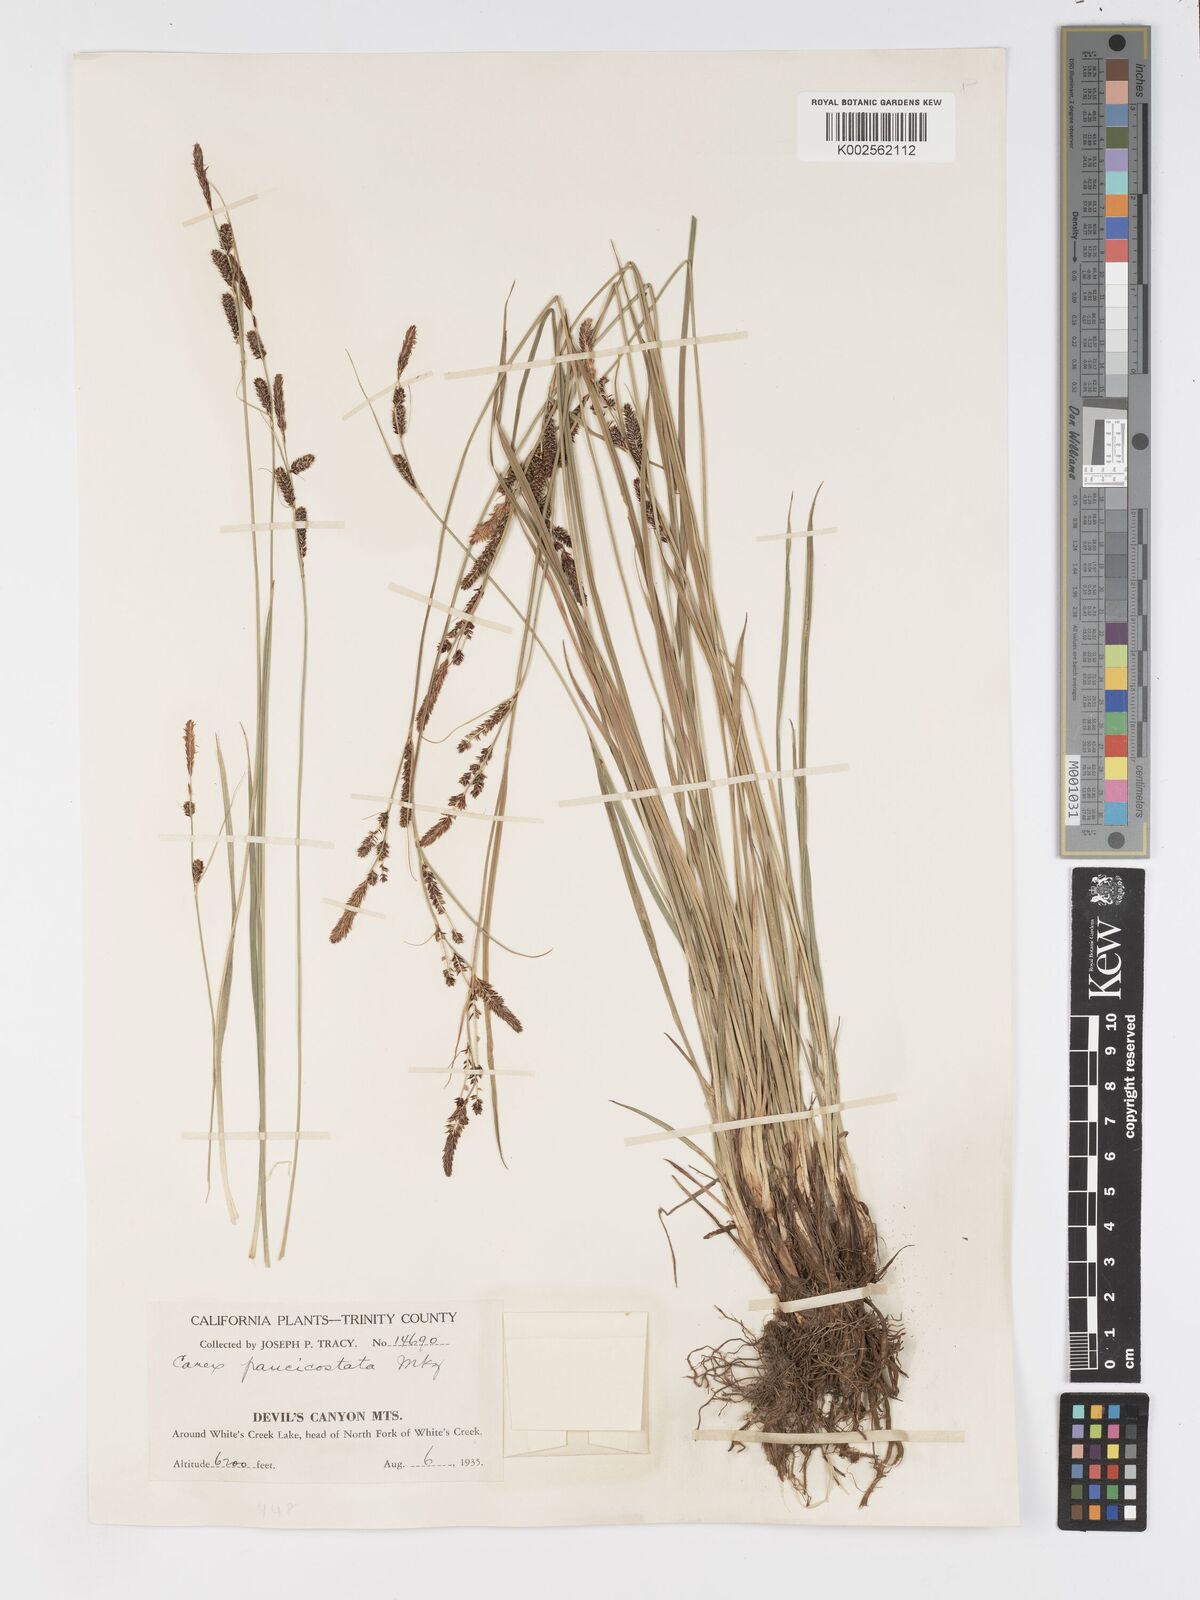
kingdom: Plantae
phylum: Tracheophyta
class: Liliopsida
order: Poales
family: Cyperaceae
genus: Carex
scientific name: Carex kelloggii
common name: Kellogg's sedge
